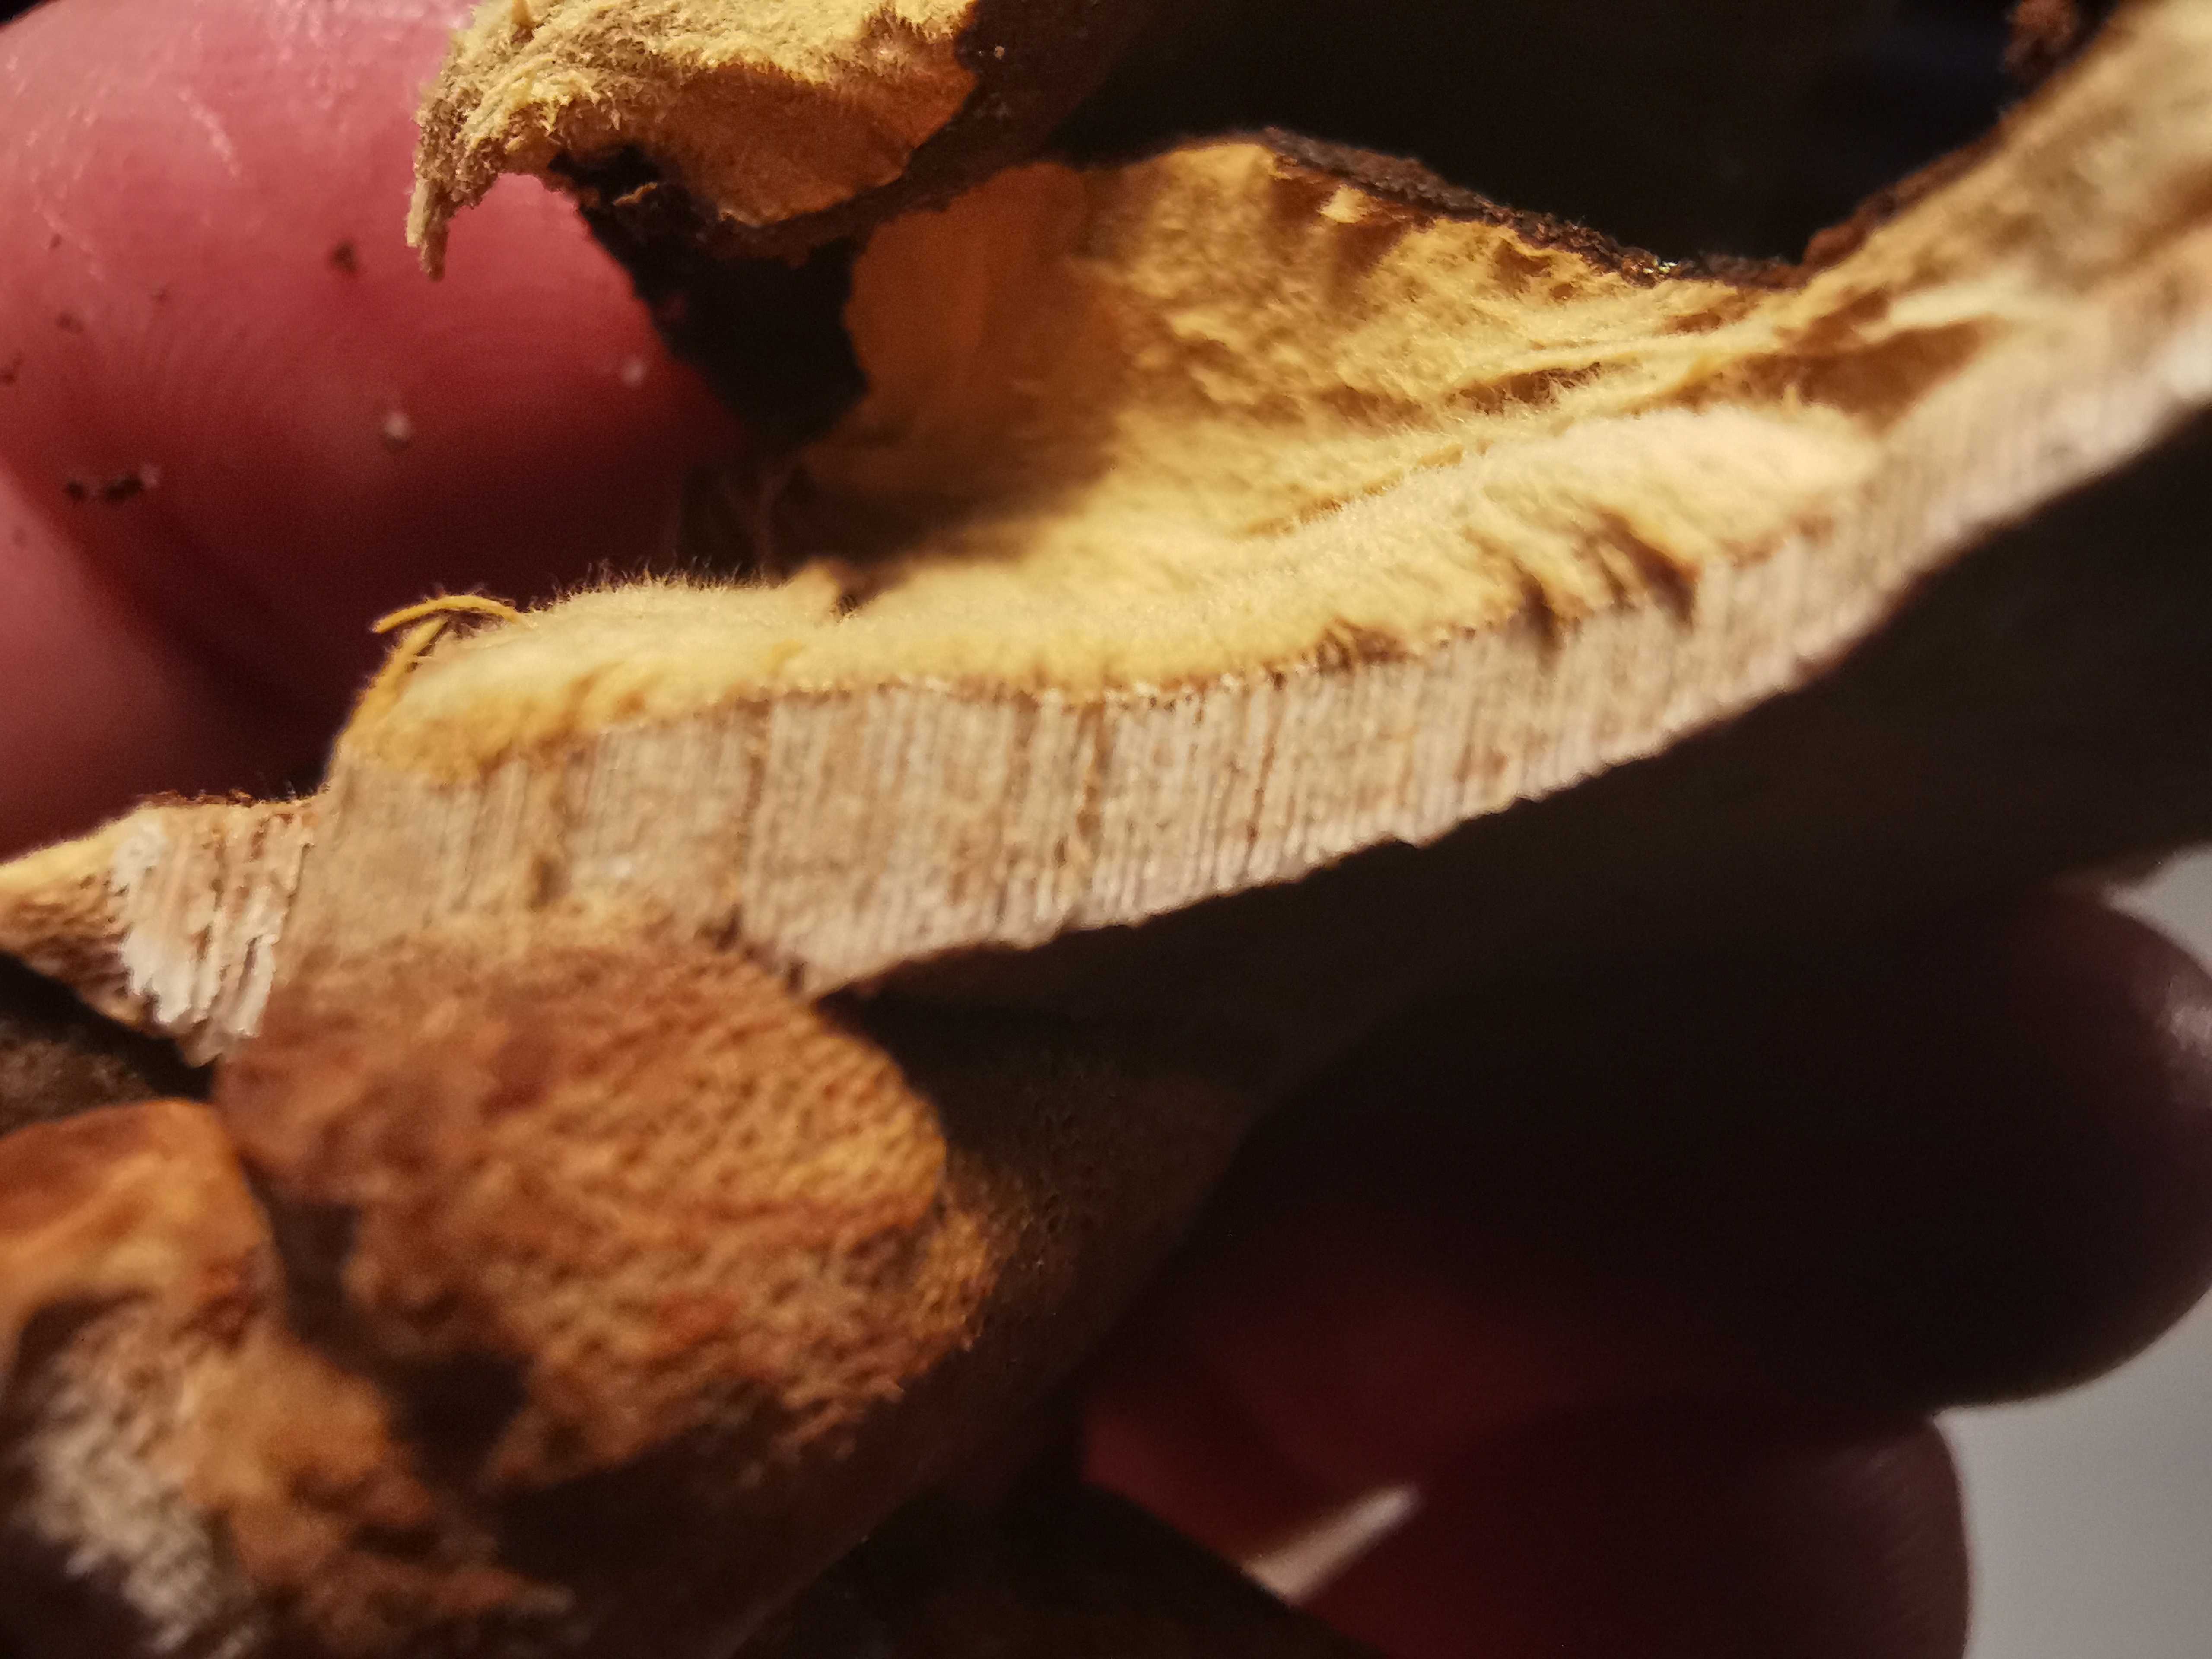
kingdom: Fungi
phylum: Basidiomycota
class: Agaricomycetes
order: Polyporales
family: Ischnodermataceae
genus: Ischnoderma
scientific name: Ischnoderma benzoinum
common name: gran-tjæreporesvamp
